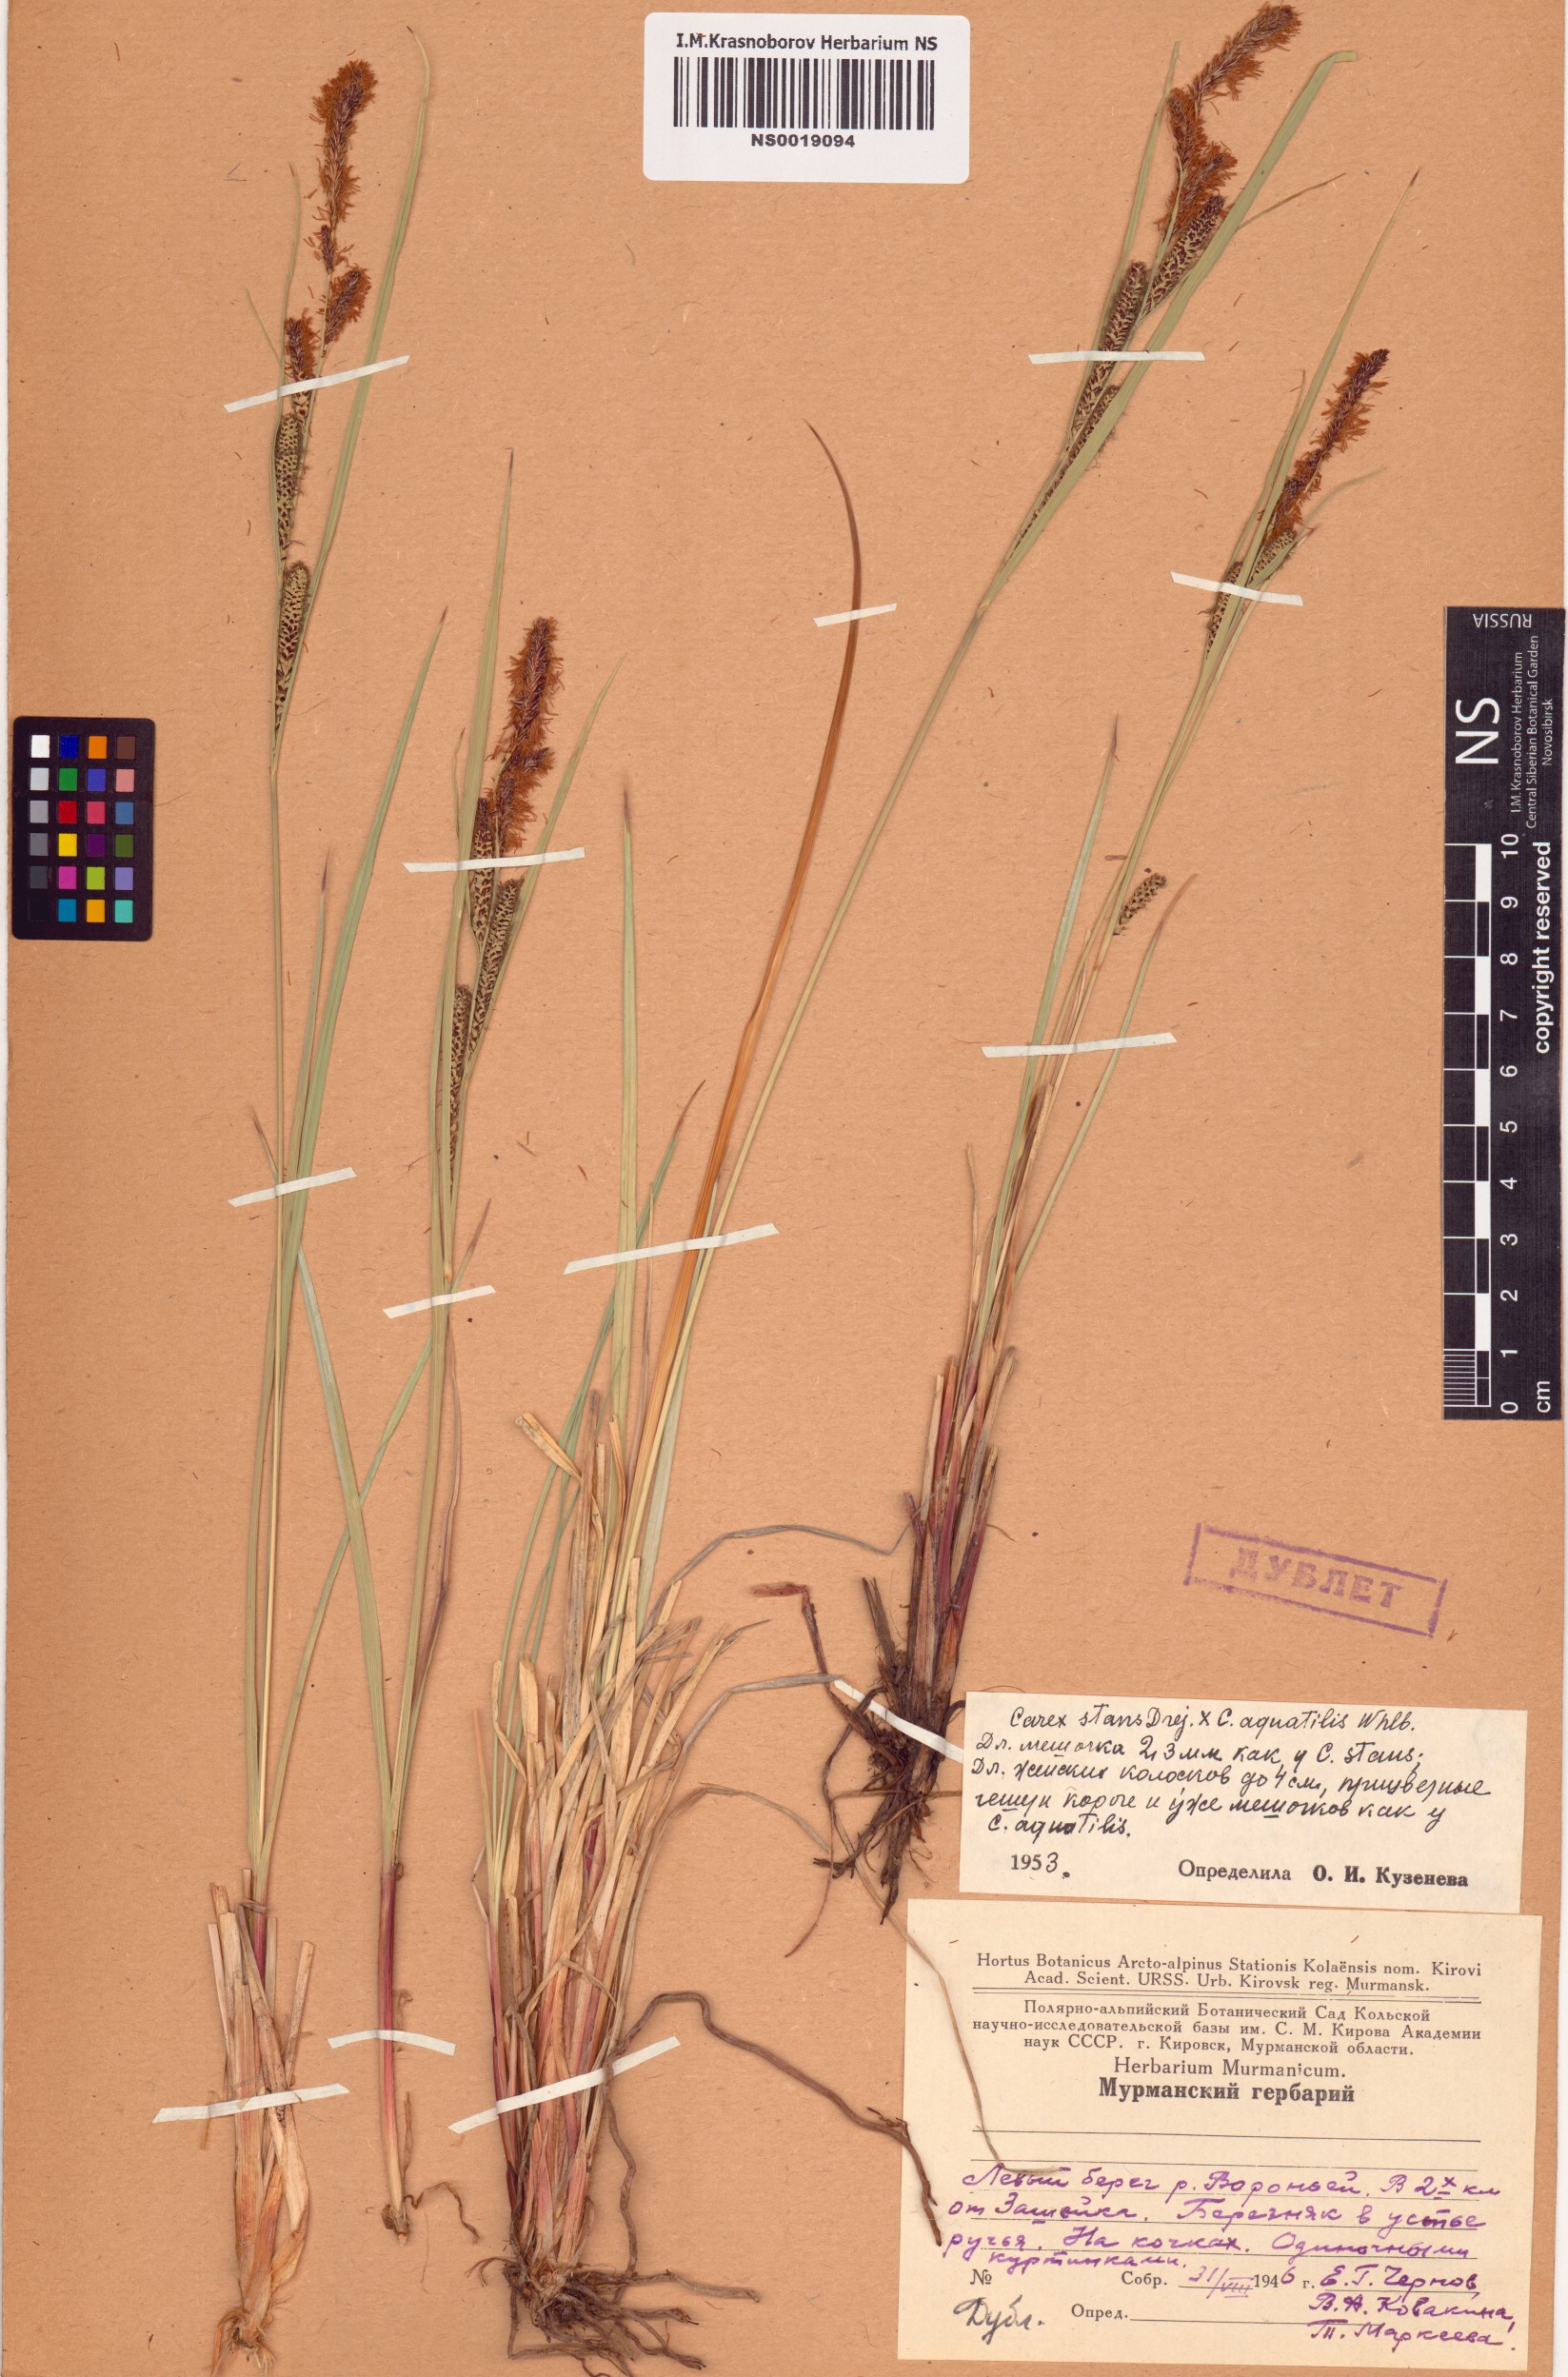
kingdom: Plantae
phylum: Tracheophyta
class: Liliopsida
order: Poales
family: Cyperaceae
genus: Carex
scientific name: Carex aquatilis
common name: Water sedge
